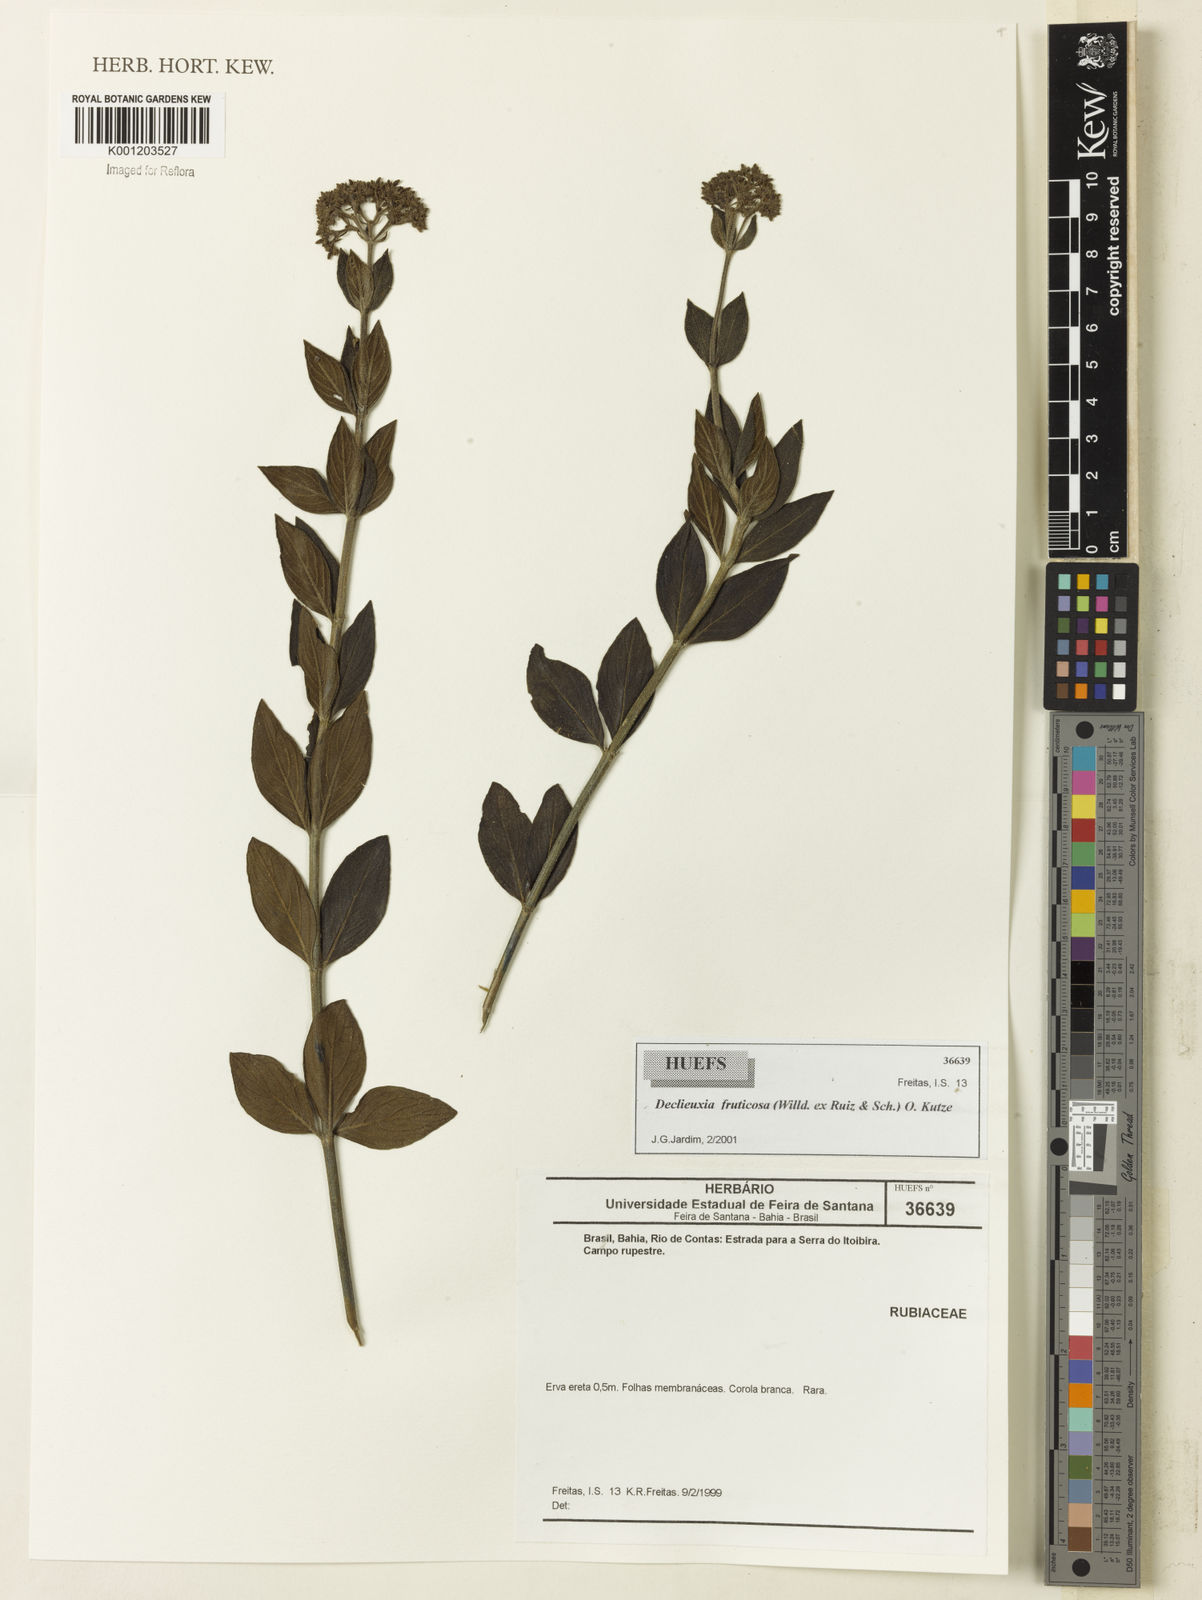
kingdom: Plantae
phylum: Tracheophyta
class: Magnoliopsida
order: Gentianales
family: Rubiaceae
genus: Declieuxia
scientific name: Declieuxia fruticosa
